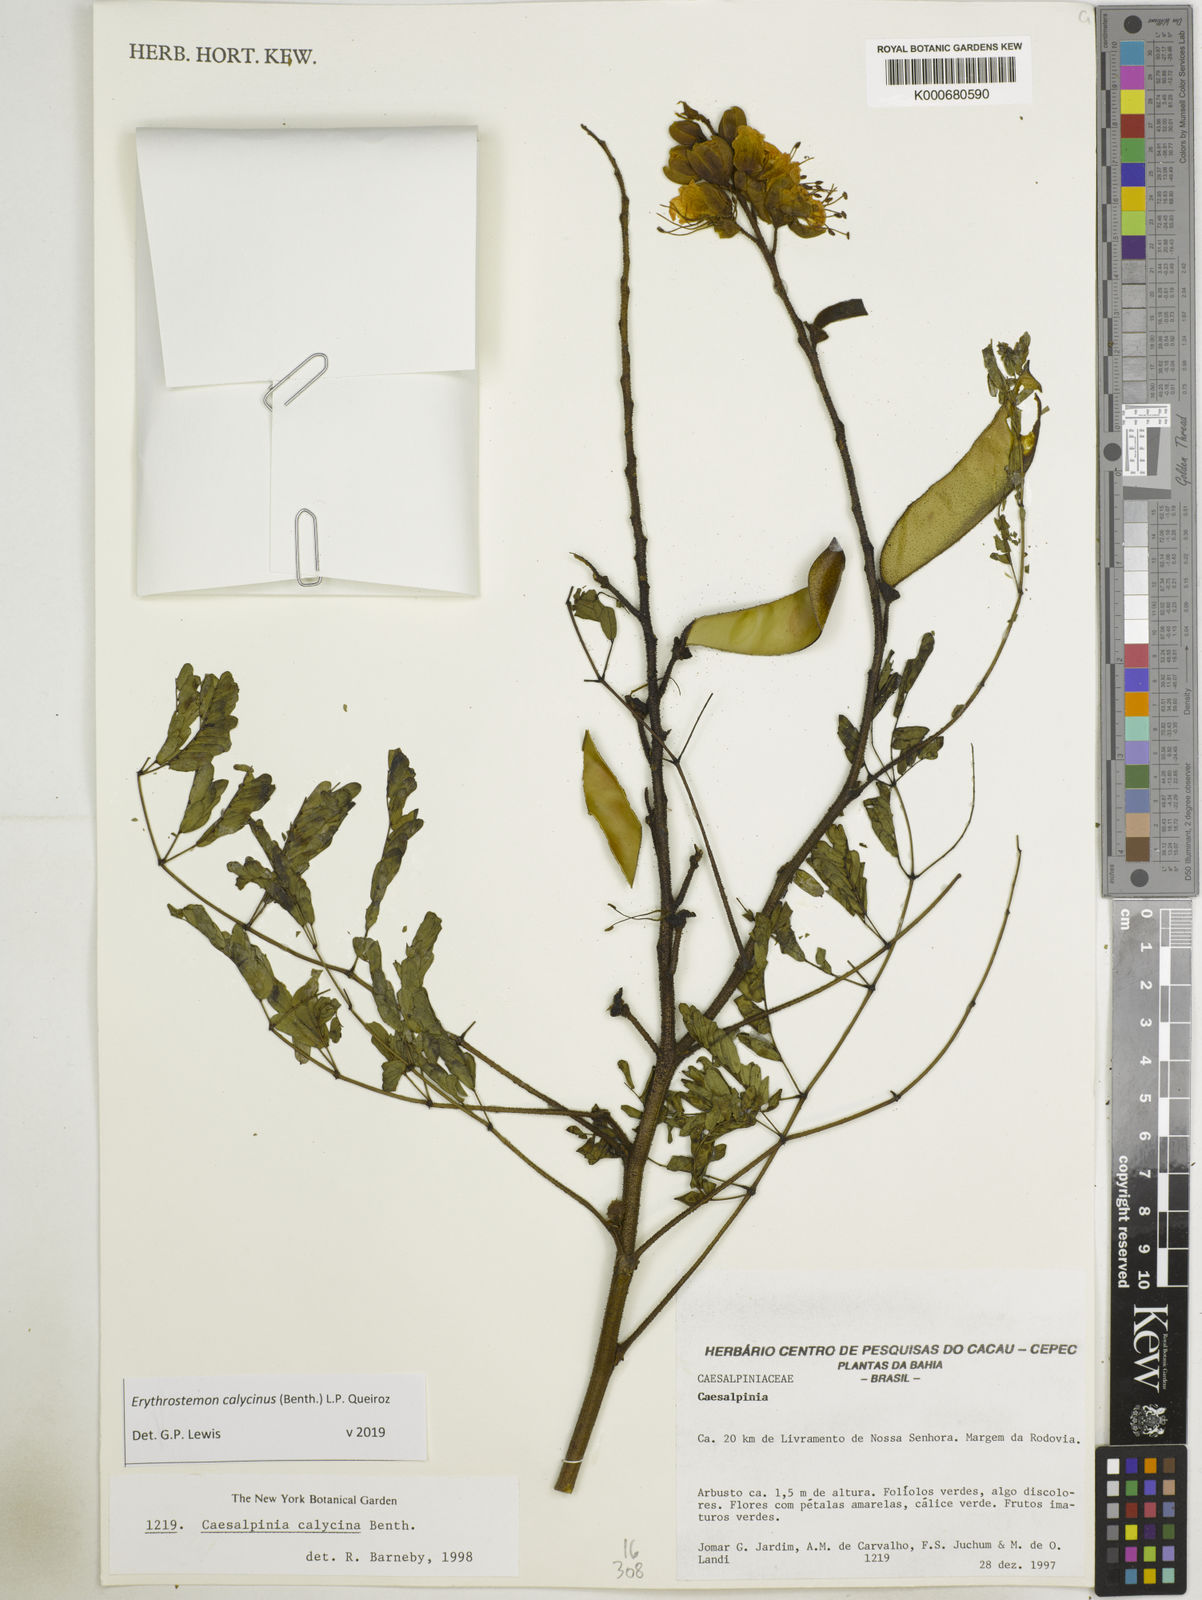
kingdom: Plantae
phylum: Tracheophyta
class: Magnoliopsida
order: Fabales
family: Fabaceae
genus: Erythrostemon
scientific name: Erythrostemon calycinus
